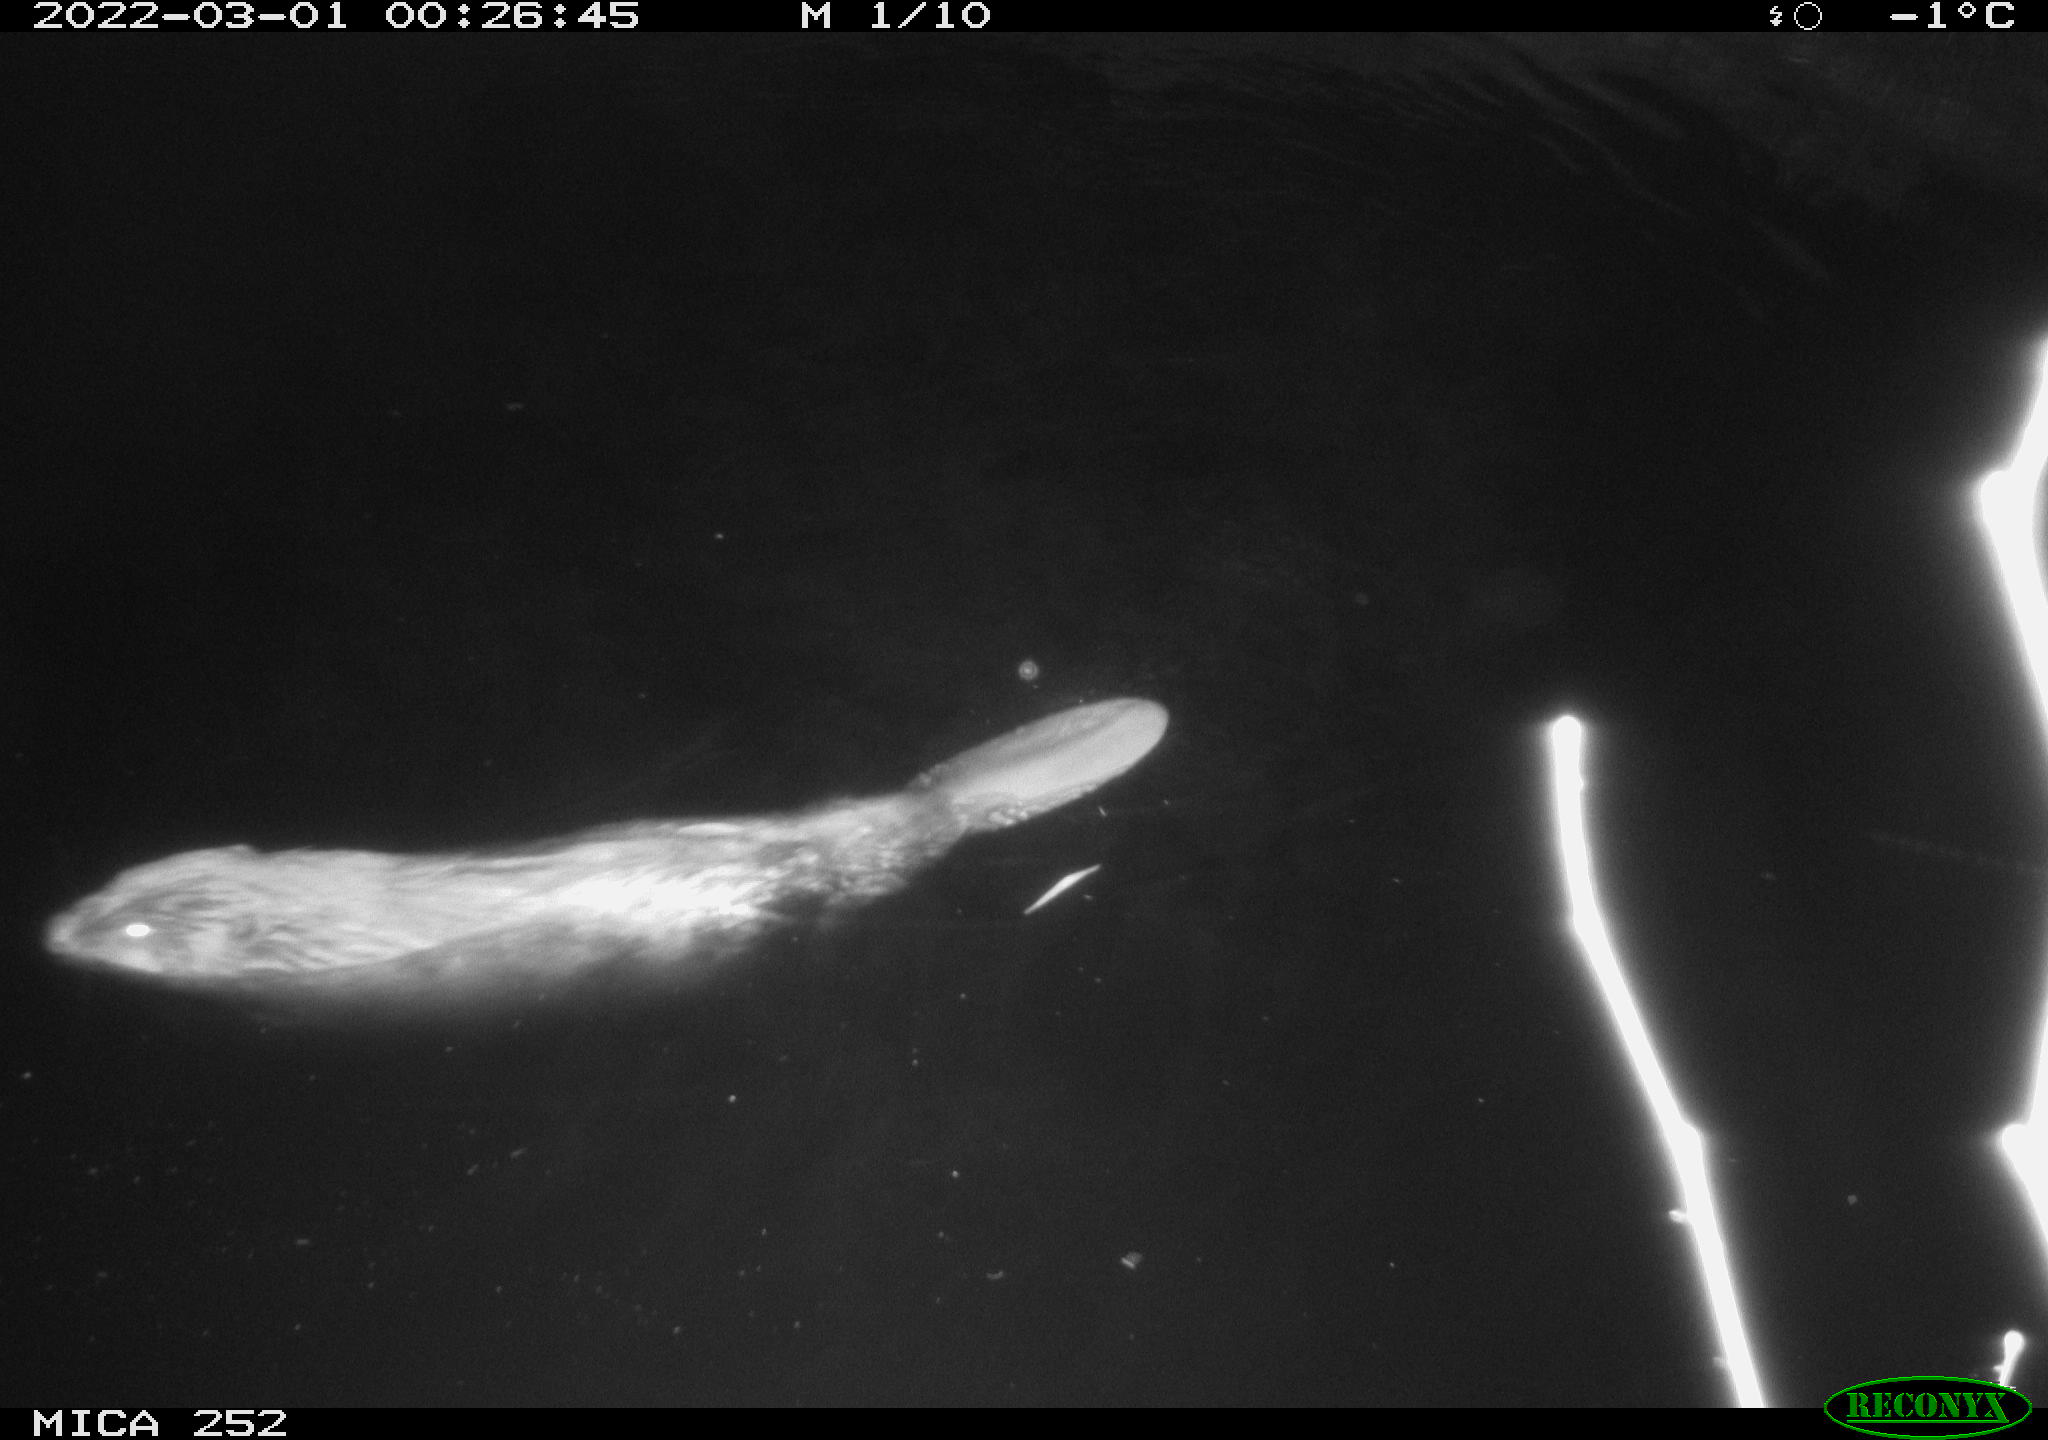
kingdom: Animalia
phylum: Chordata
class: Mammalia
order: Rodentia
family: Castoridae
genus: Castor
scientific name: Castor fiber
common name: Eurasian beaver
